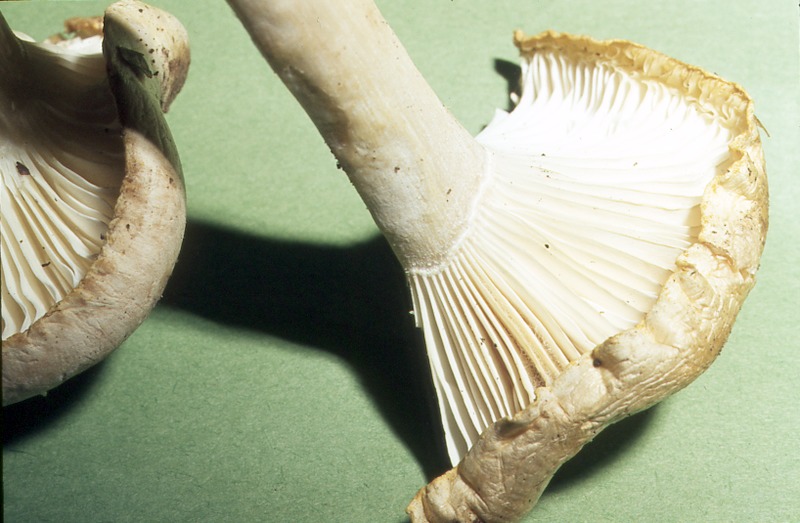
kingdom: Fungi
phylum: Basidiomycota
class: Agaricomycetes
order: Agaricales
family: Hygrophoraceae
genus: Hygrophorus
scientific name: Hygrophorus poetarum
